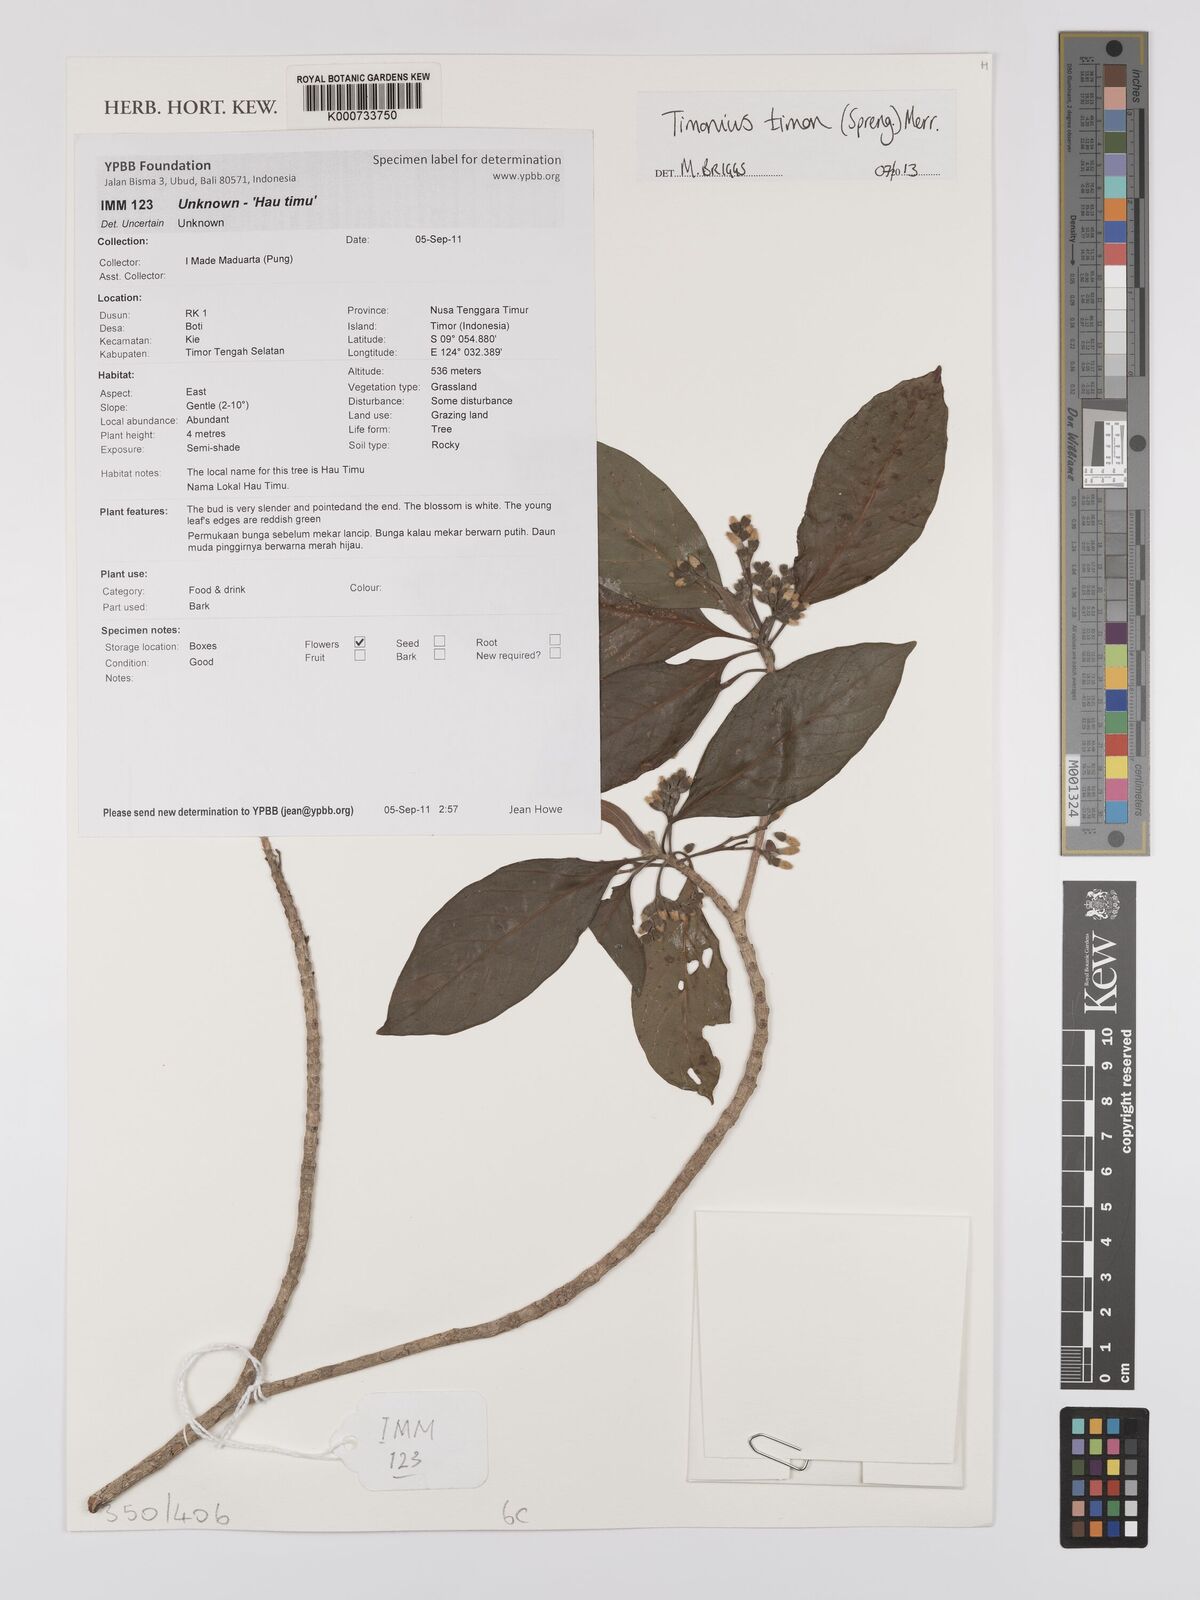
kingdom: Plantae
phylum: Tracheophyta
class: Magnoliopsida
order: Gentianales
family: Rubiaceae
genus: Timonius
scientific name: Timonius timon
